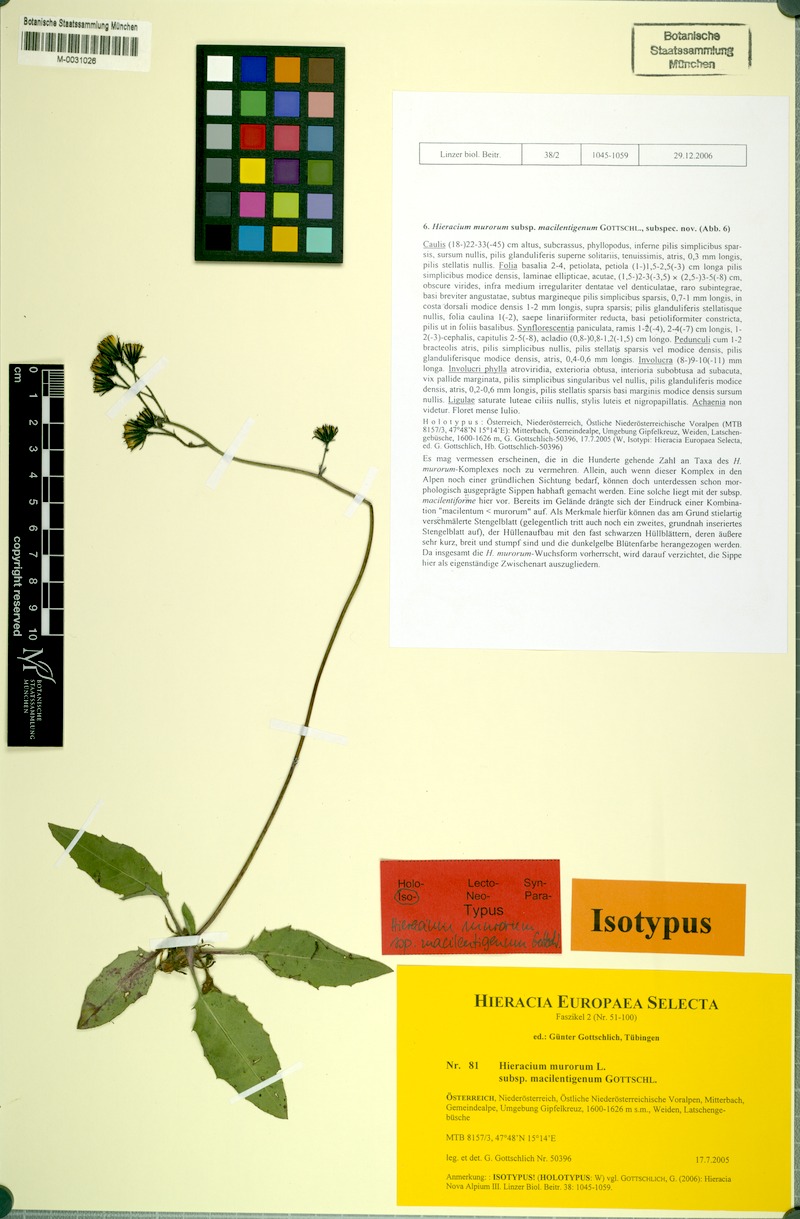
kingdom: Plantae
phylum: Tracheophyta
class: Magnoliopsida
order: Asterales
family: Asteraceae
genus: Hieracium
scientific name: Hieracium murorum
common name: Wall hawkweed
